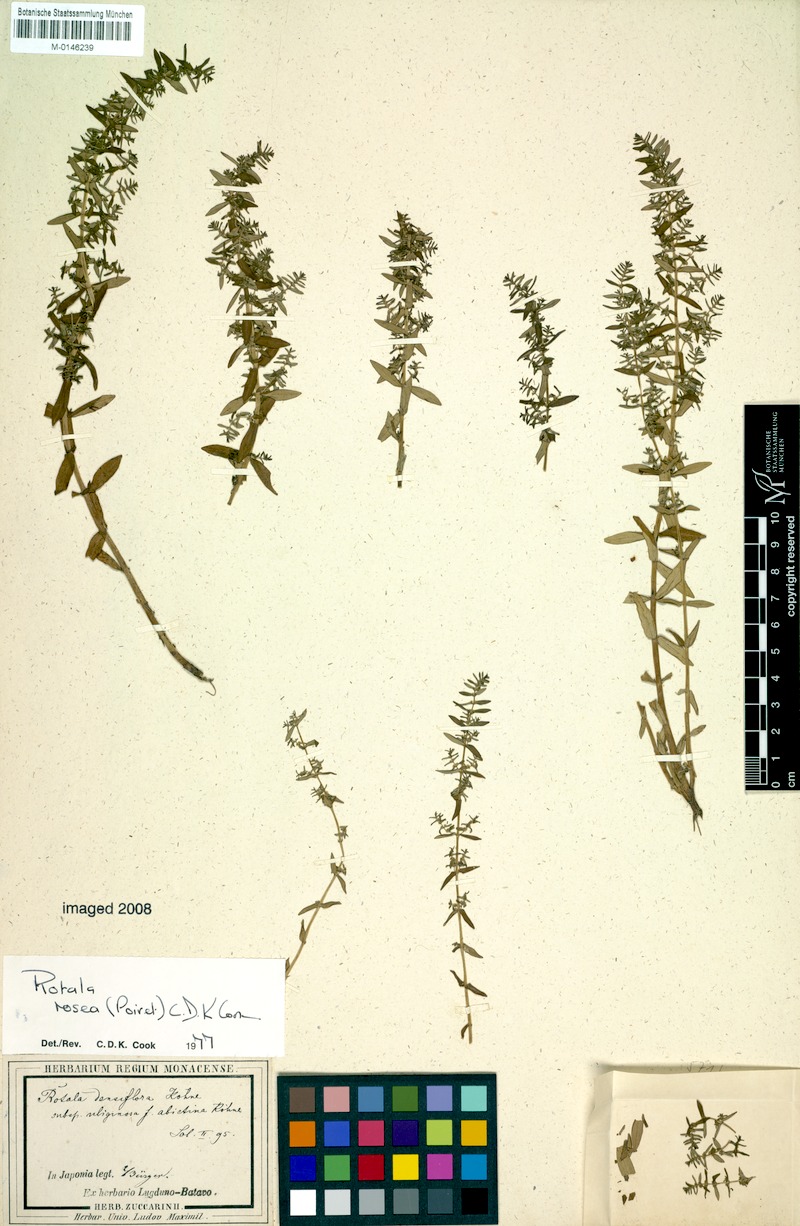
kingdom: Plantae
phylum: Tracheophyta
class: Magnoliopsida
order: Myrtales
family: Lythraceae
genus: Rotala
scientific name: Rotala rosea
